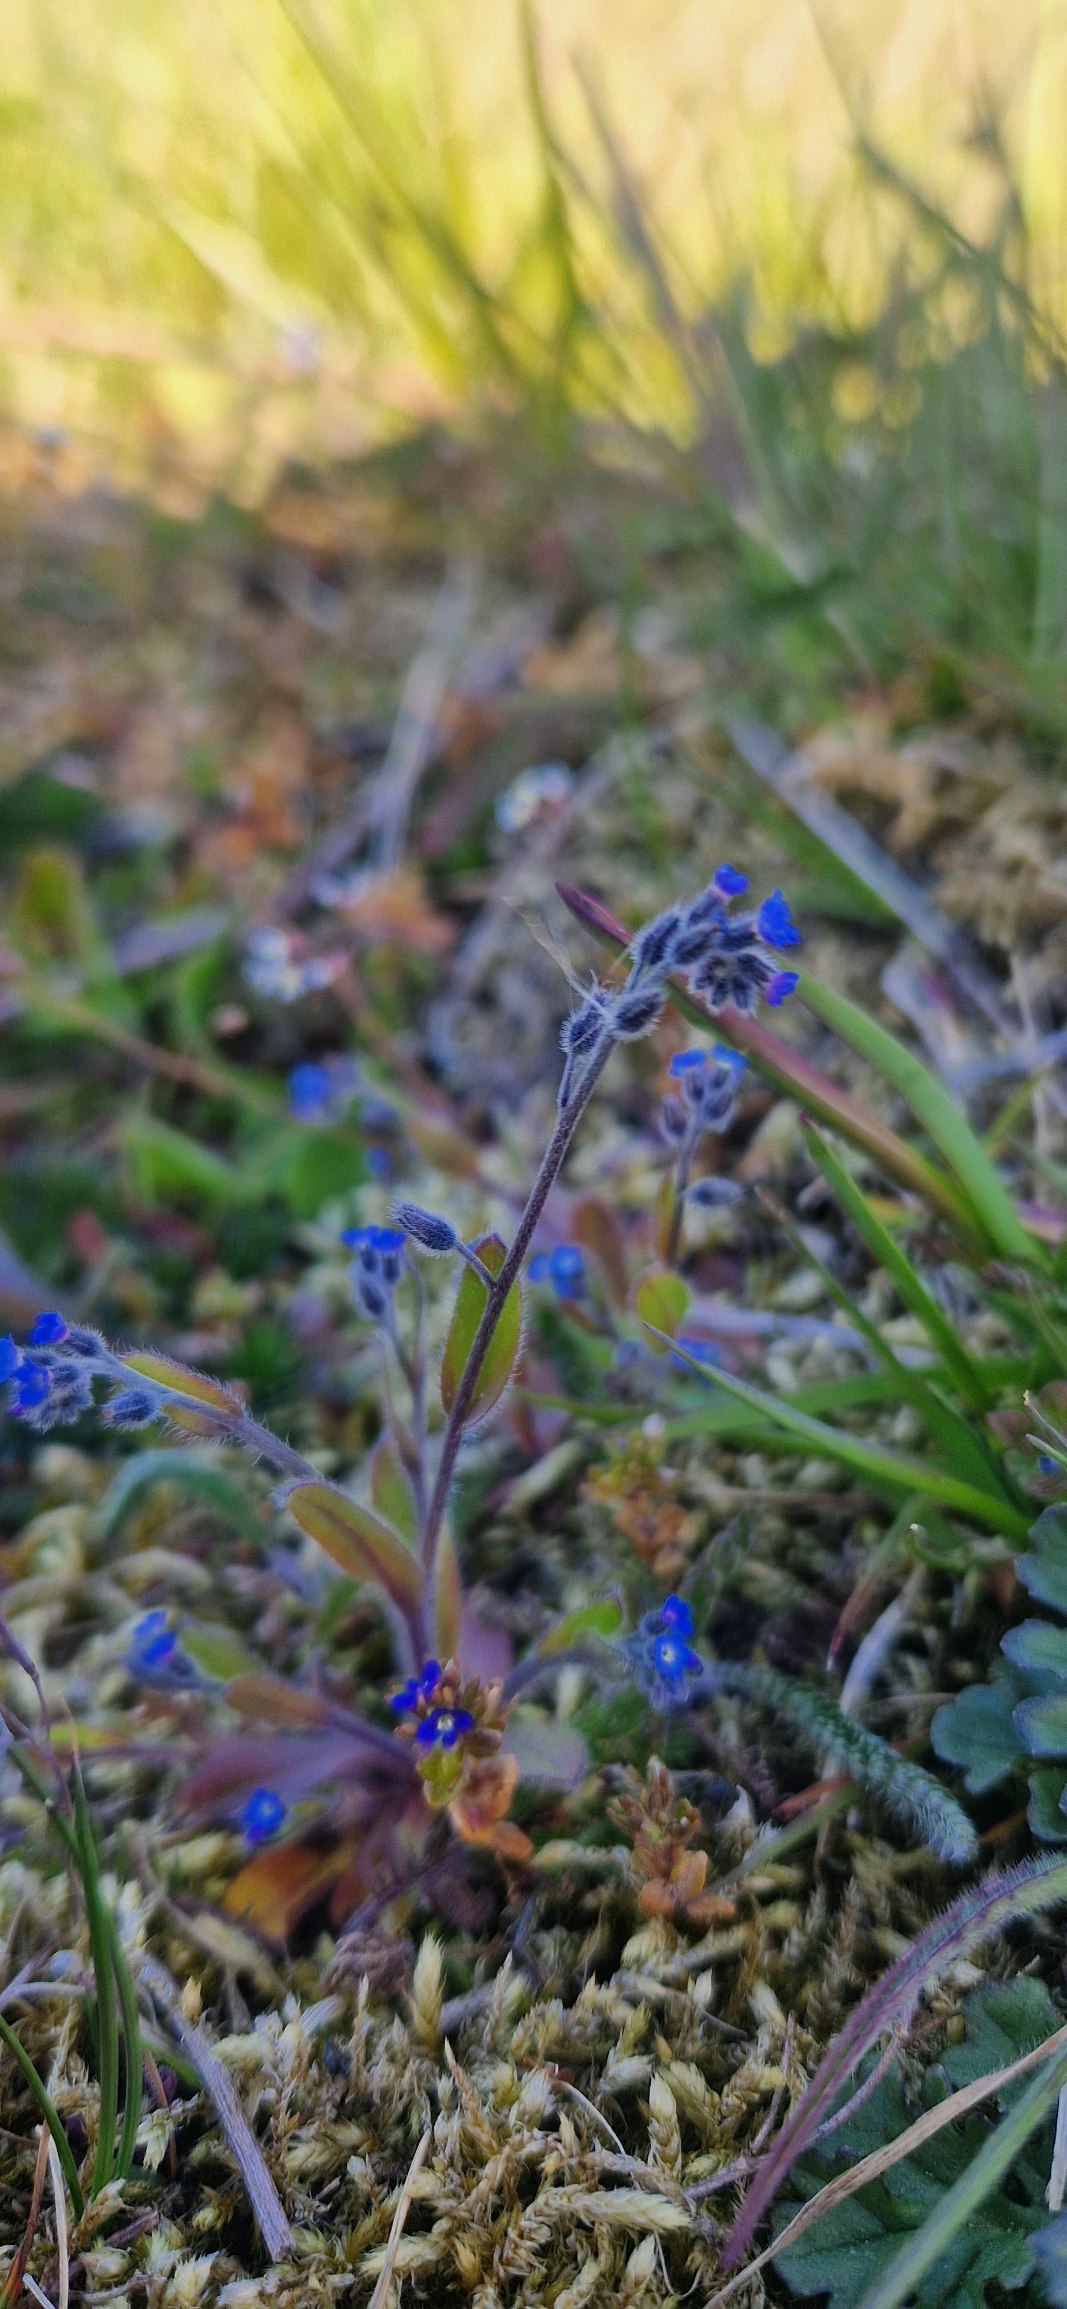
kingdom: Plantae
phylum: Tracheophyta
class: Magnoliopsida
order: Boraginales
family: Boraginaceae
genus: Myosotis
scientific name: Myosotis ramosissima
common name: Bakke-forglemmigej
